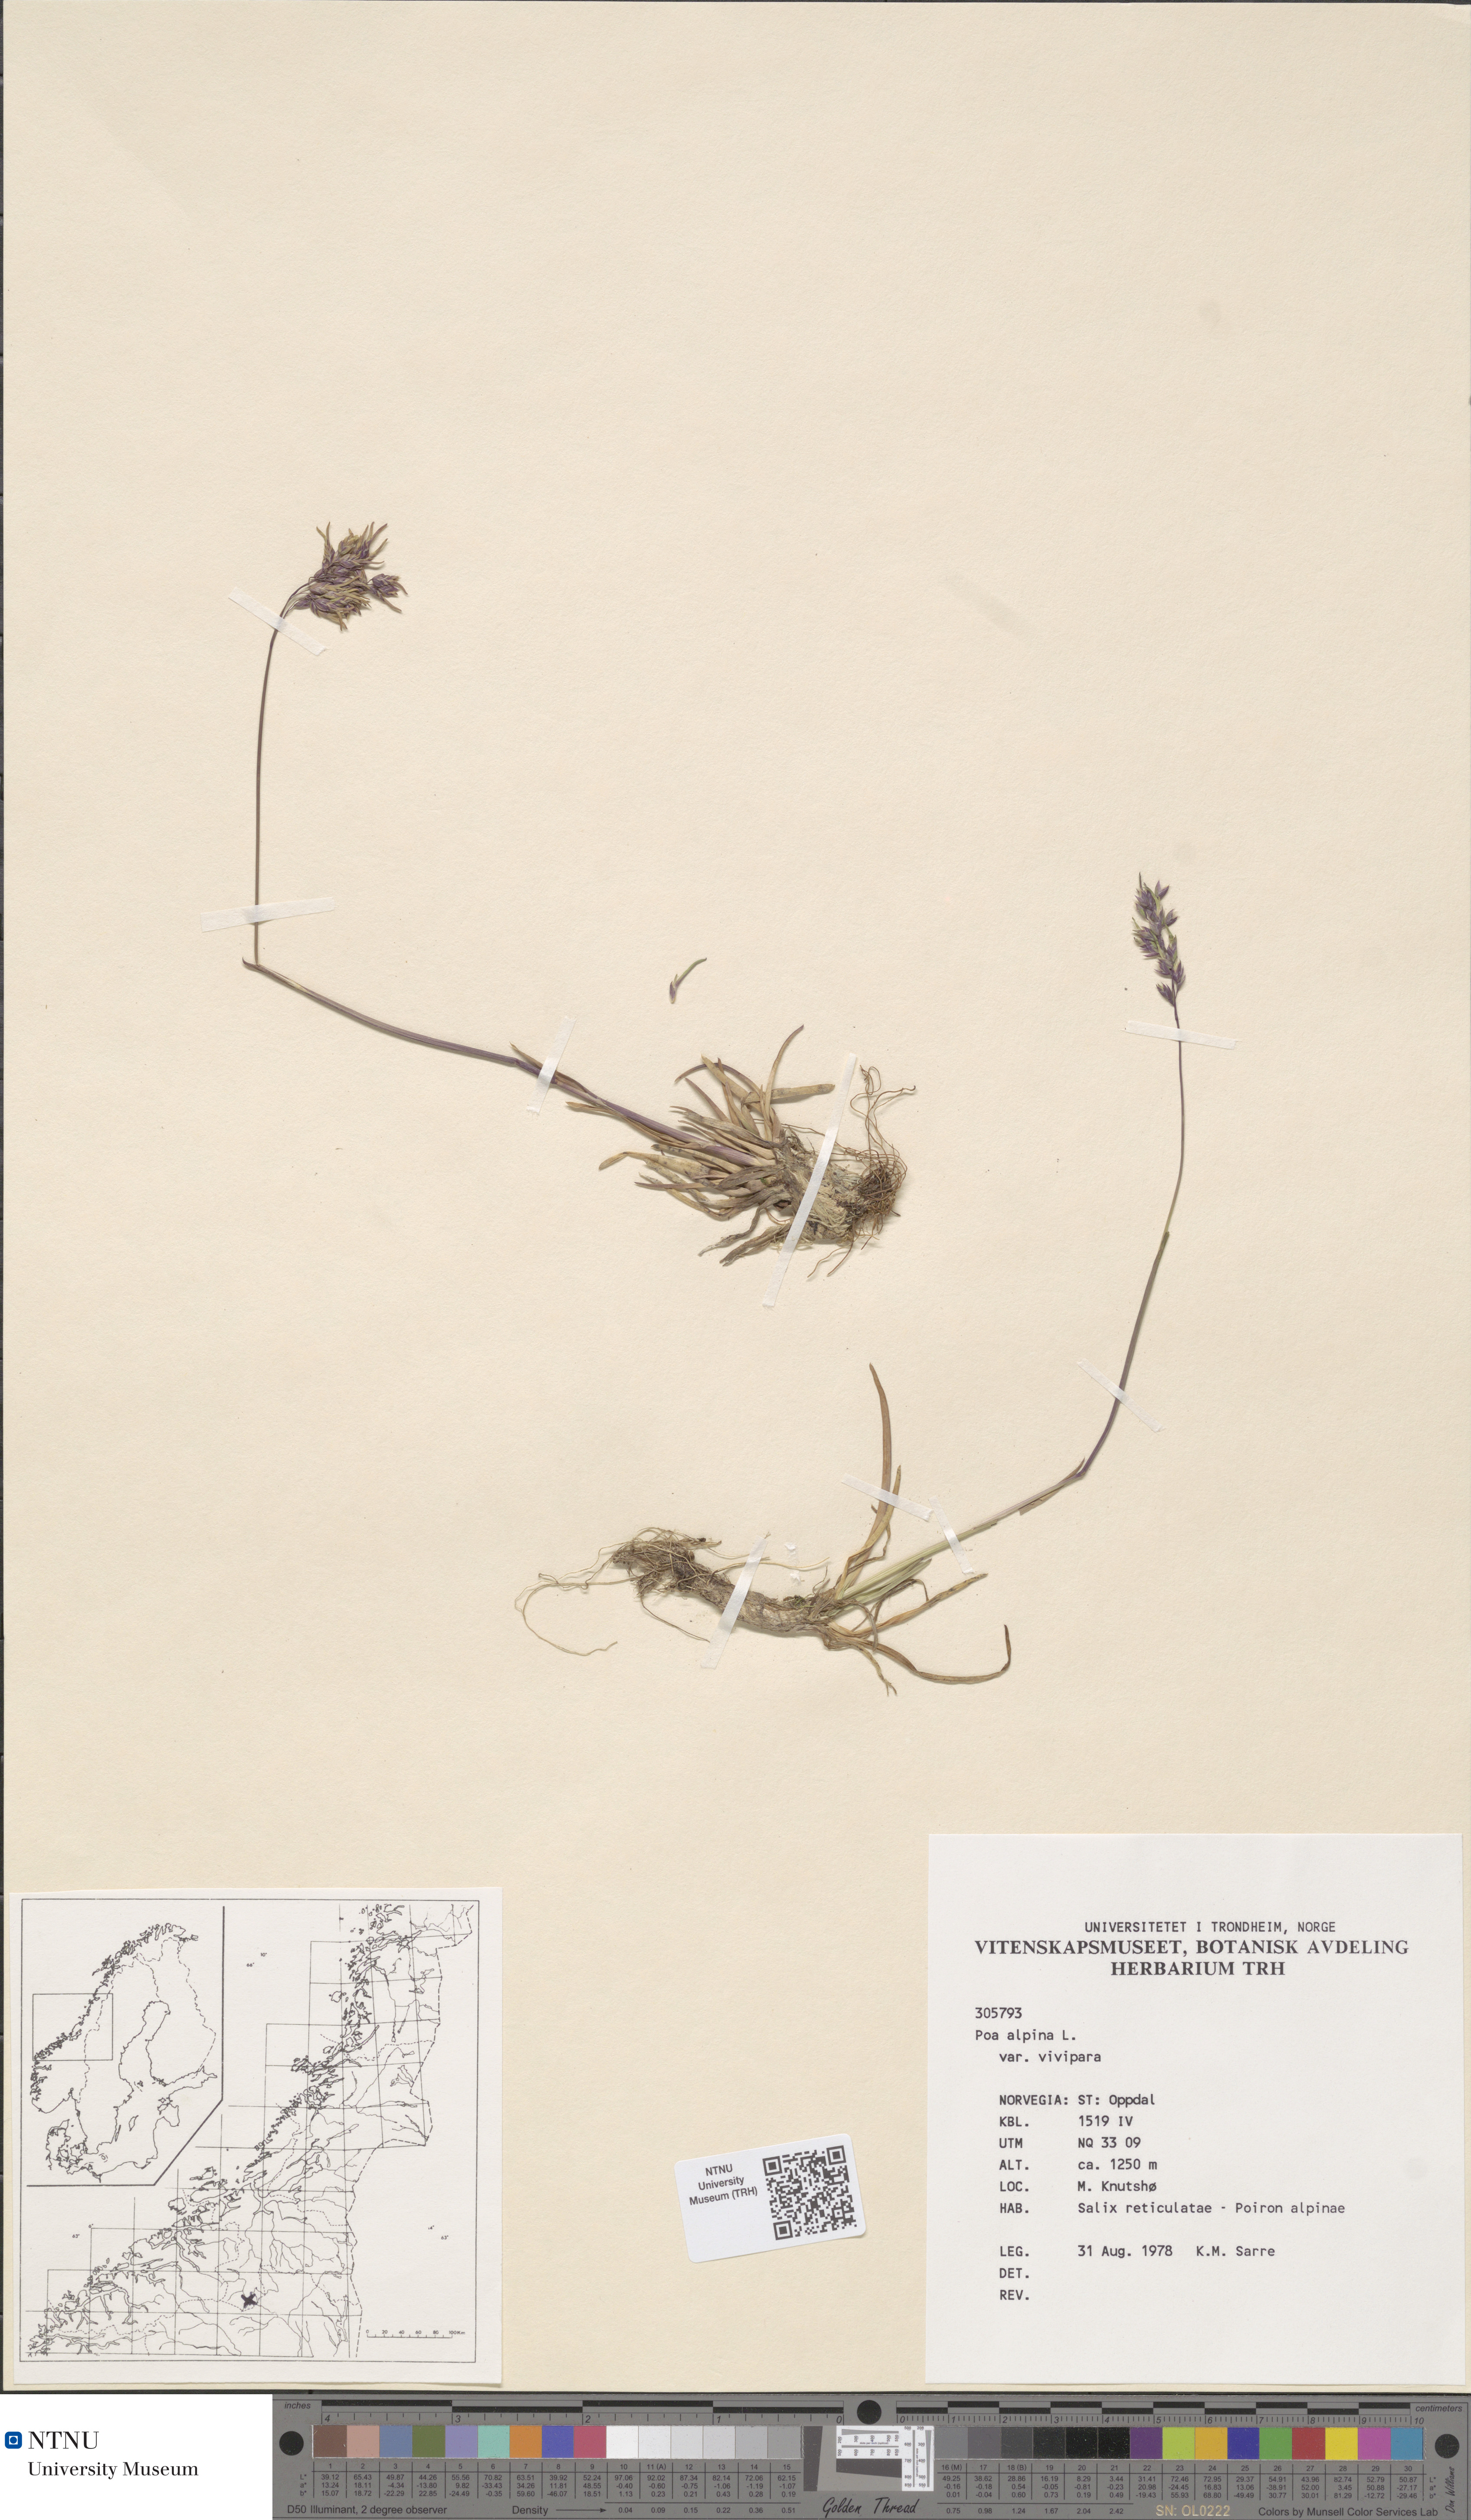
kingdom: Plantae
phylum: Tracheophyta
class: Liliopsida
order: Poales
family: Poaceae
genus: Poa
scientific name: Poa alpina
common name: Alpine bluegrass
